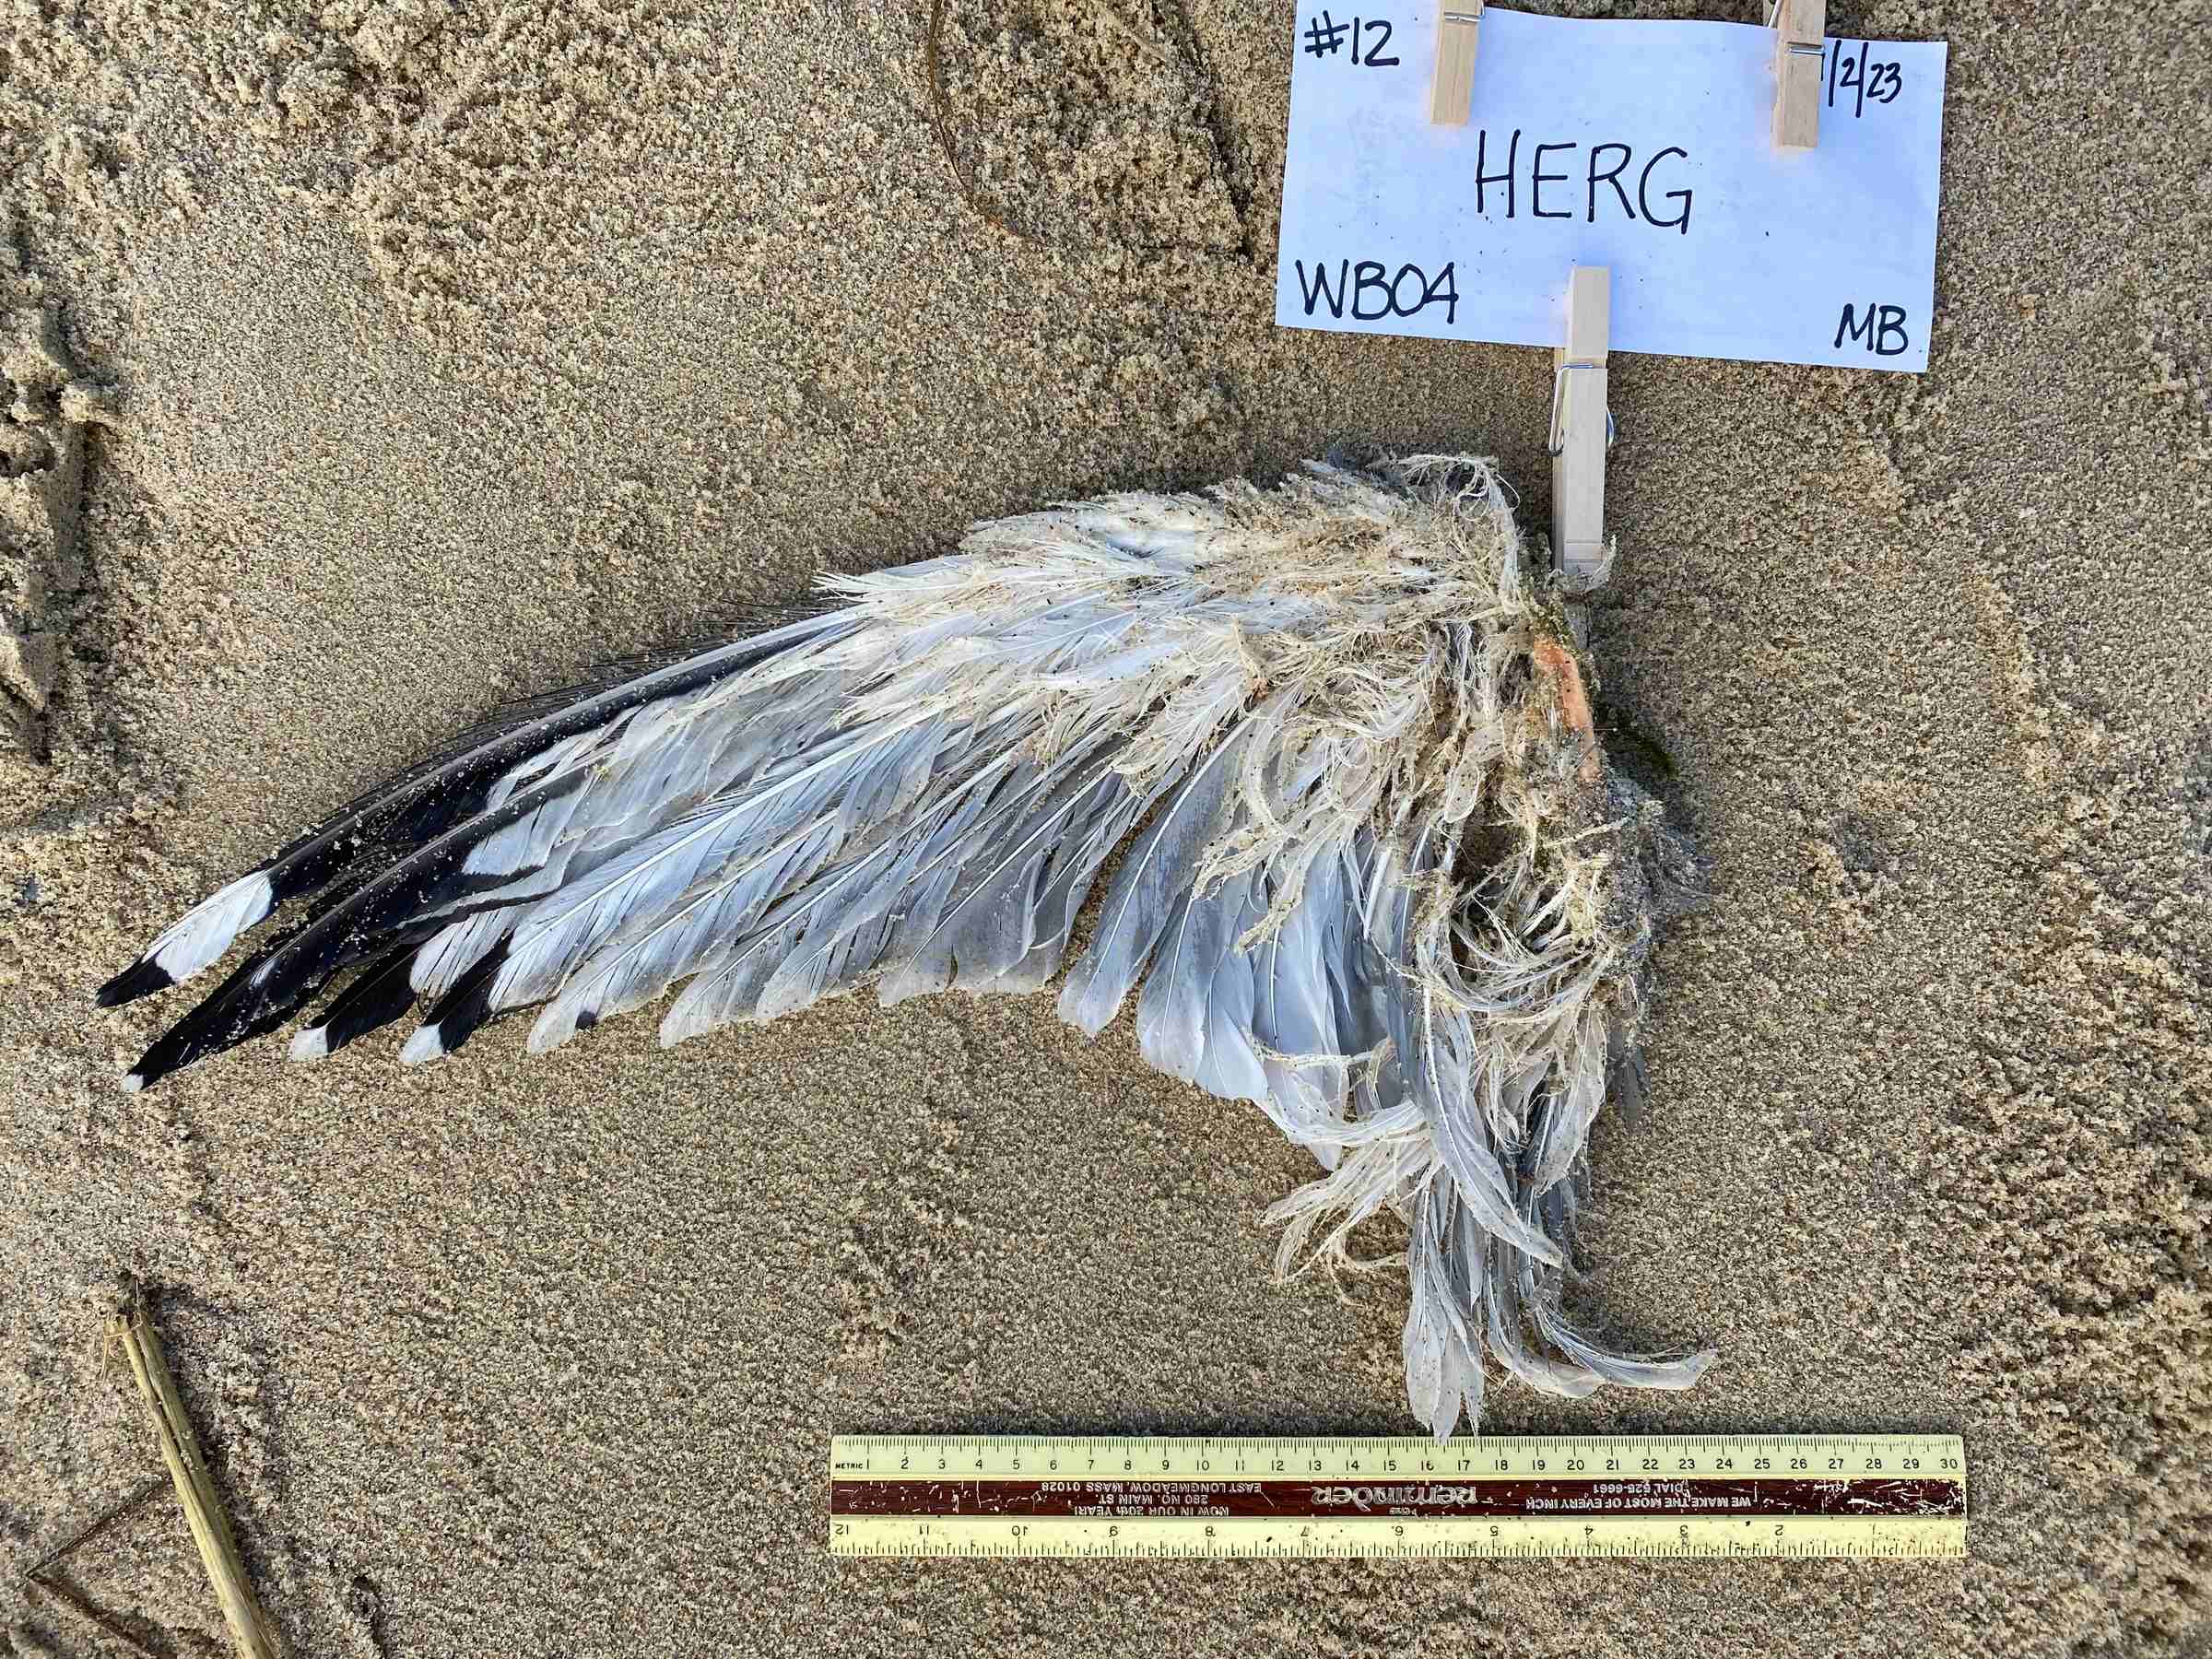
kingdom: Animalia
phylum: Chordata
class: Aves
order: Charadriiformes
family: Laridae
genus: Larus
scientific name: Larus smithsonianus
